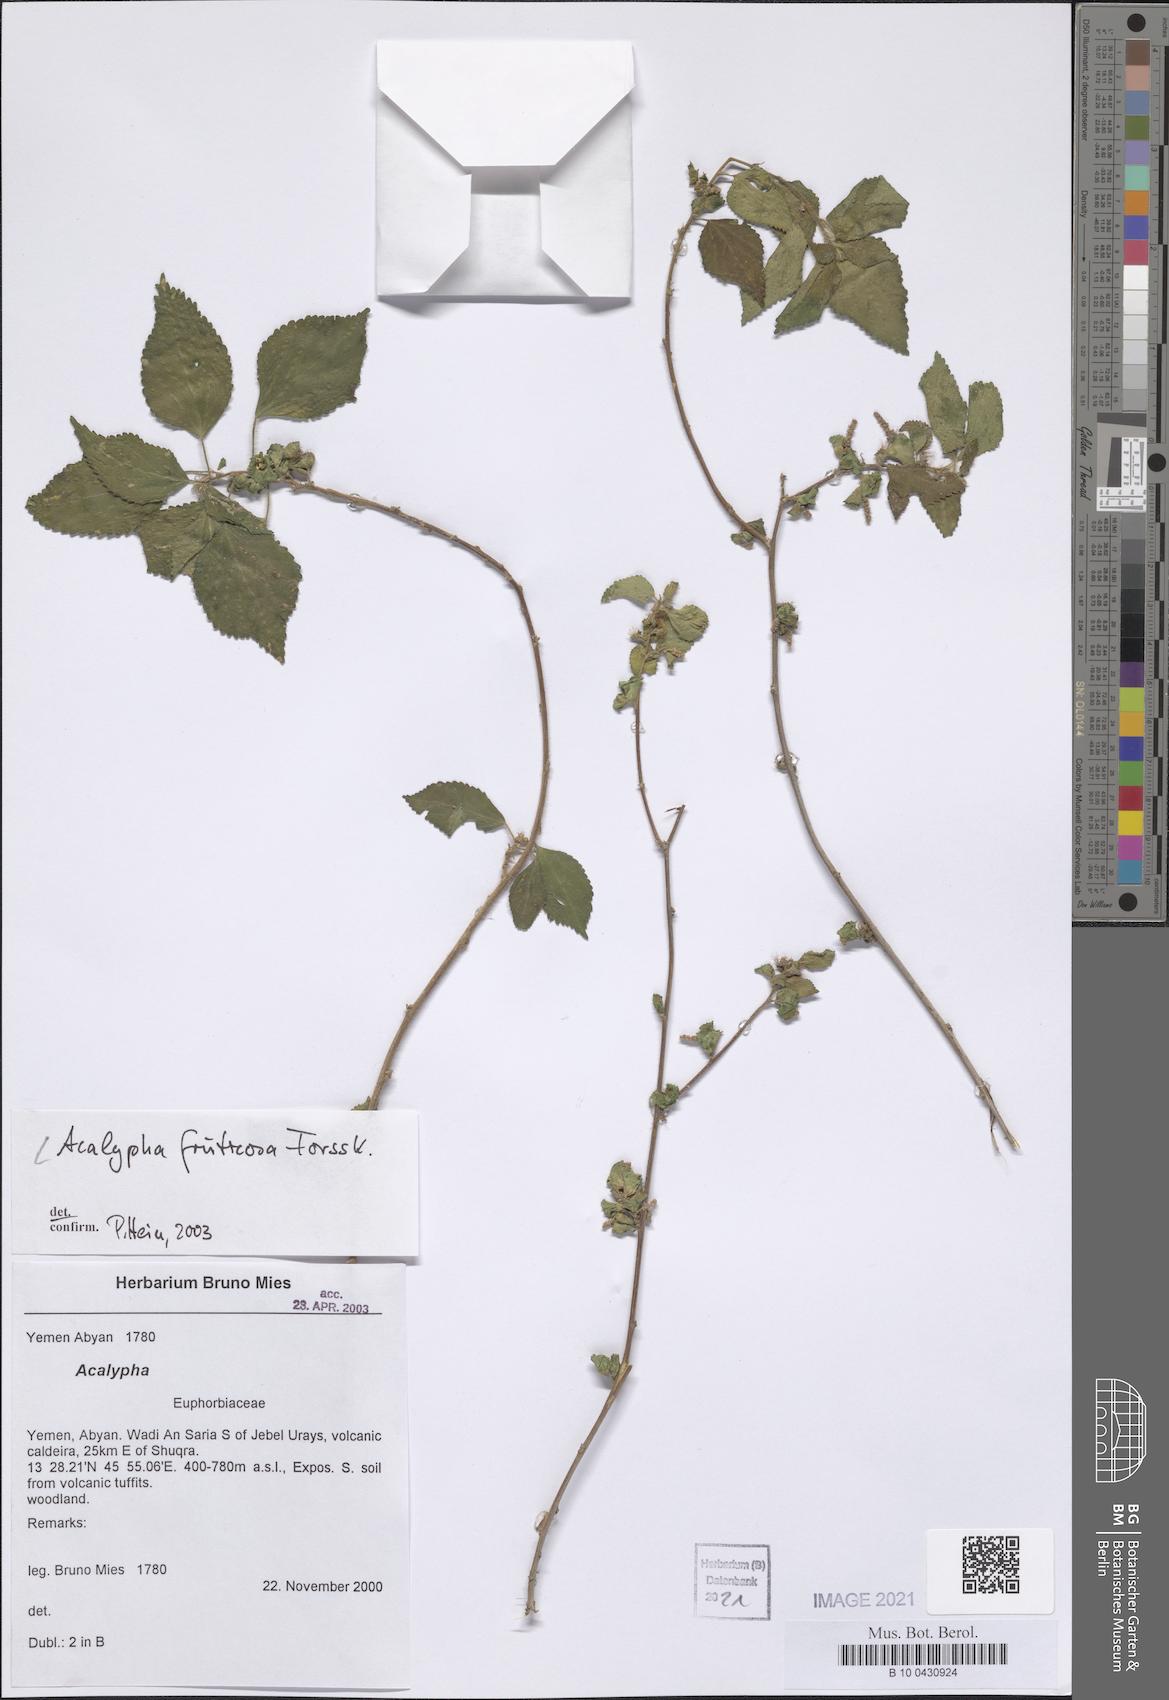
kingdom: Plantae
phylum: Tracheophyta
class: Magnoliopsida
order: Malpighiales
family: Euphorbiaceae
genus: Acalypha
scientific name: Acalypha fruticosa
